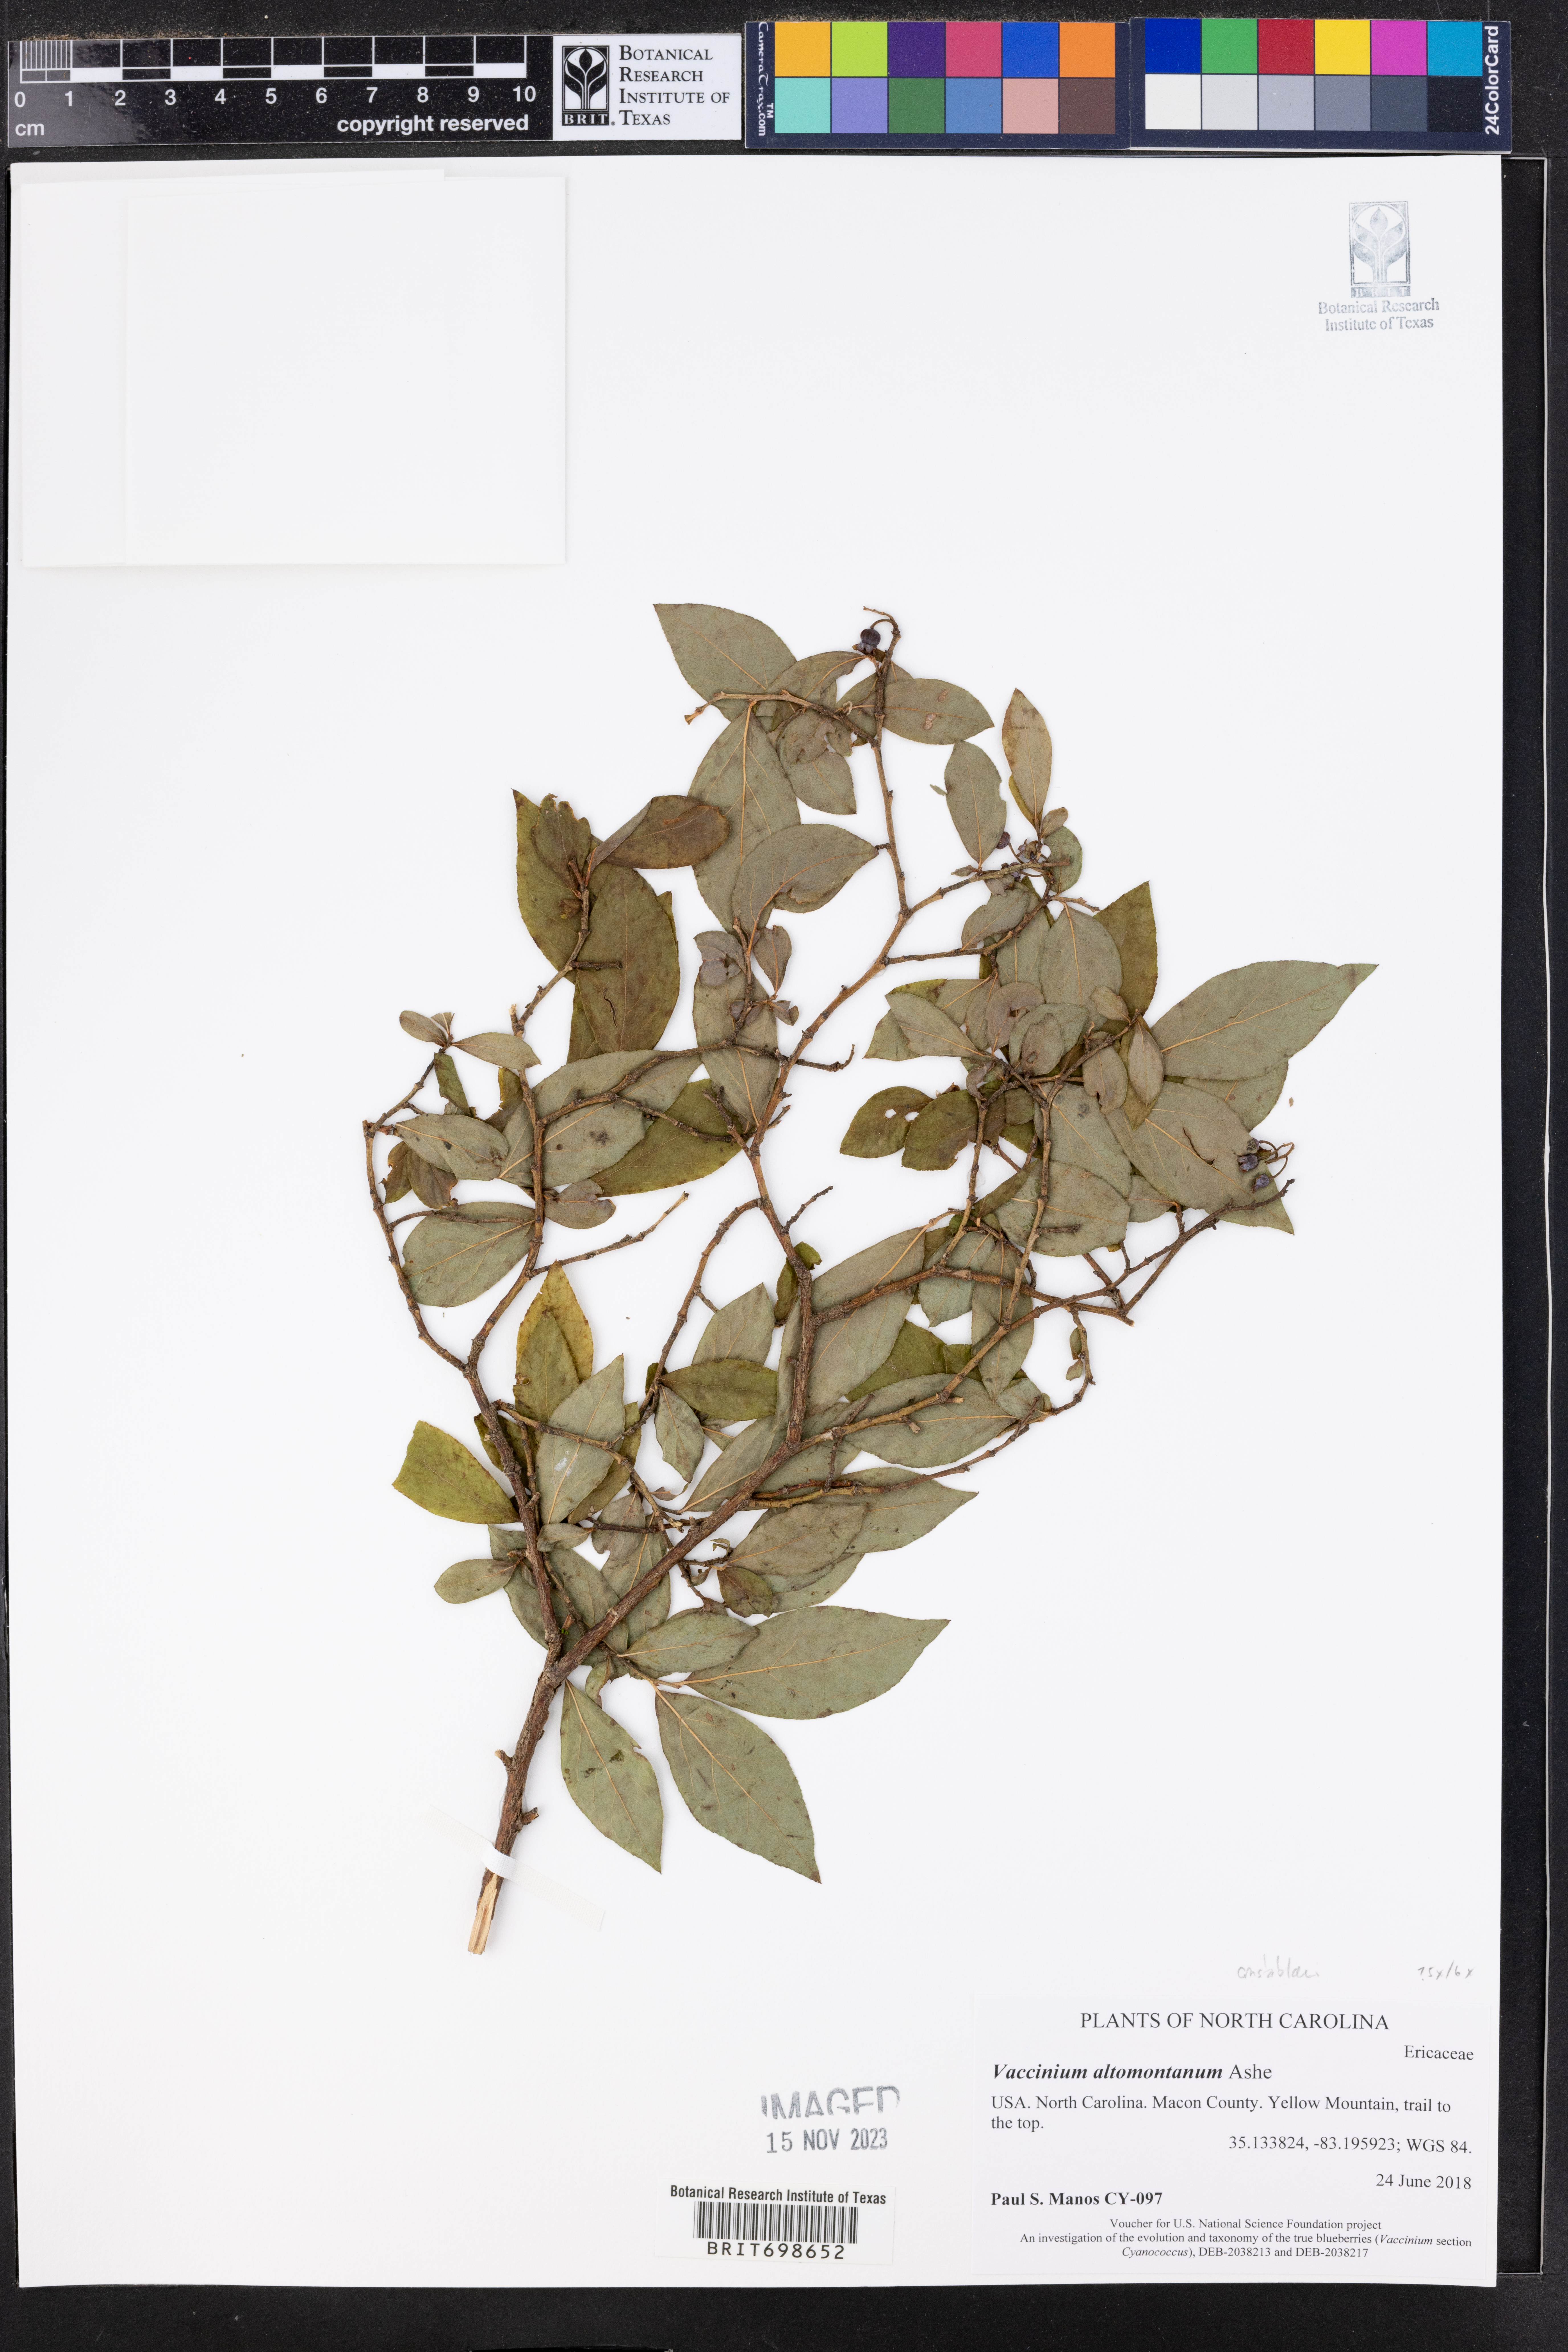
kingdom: Plantae
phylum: Tracheophyta
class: Magnoliopsida
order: Ericales
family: Ericaceae
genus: Vaccinium
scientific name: Vaccinium pallidum
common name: Blue ridge blueberry
